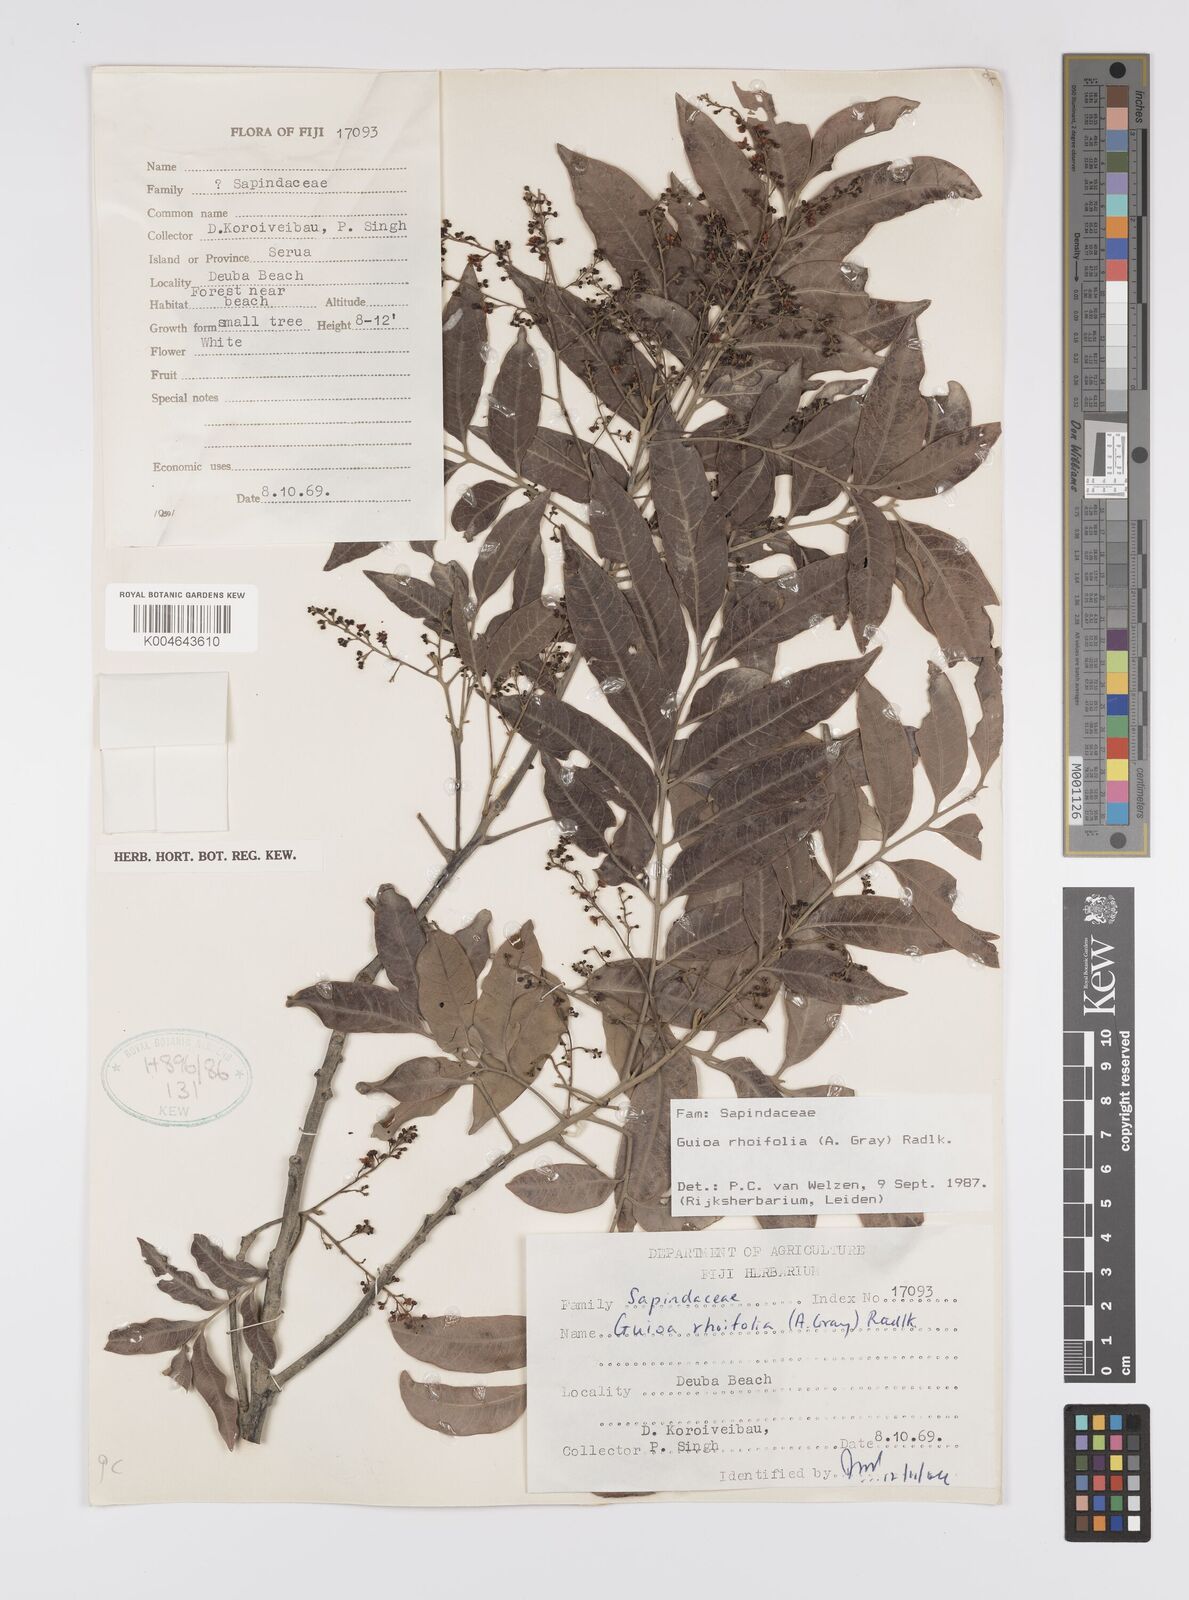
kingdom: Plantae
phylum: Tracheophyta
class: Magnoliopsida
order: Sapindales
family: Sapindaceae
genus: Guioa
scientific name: Guioa rhoifolia
